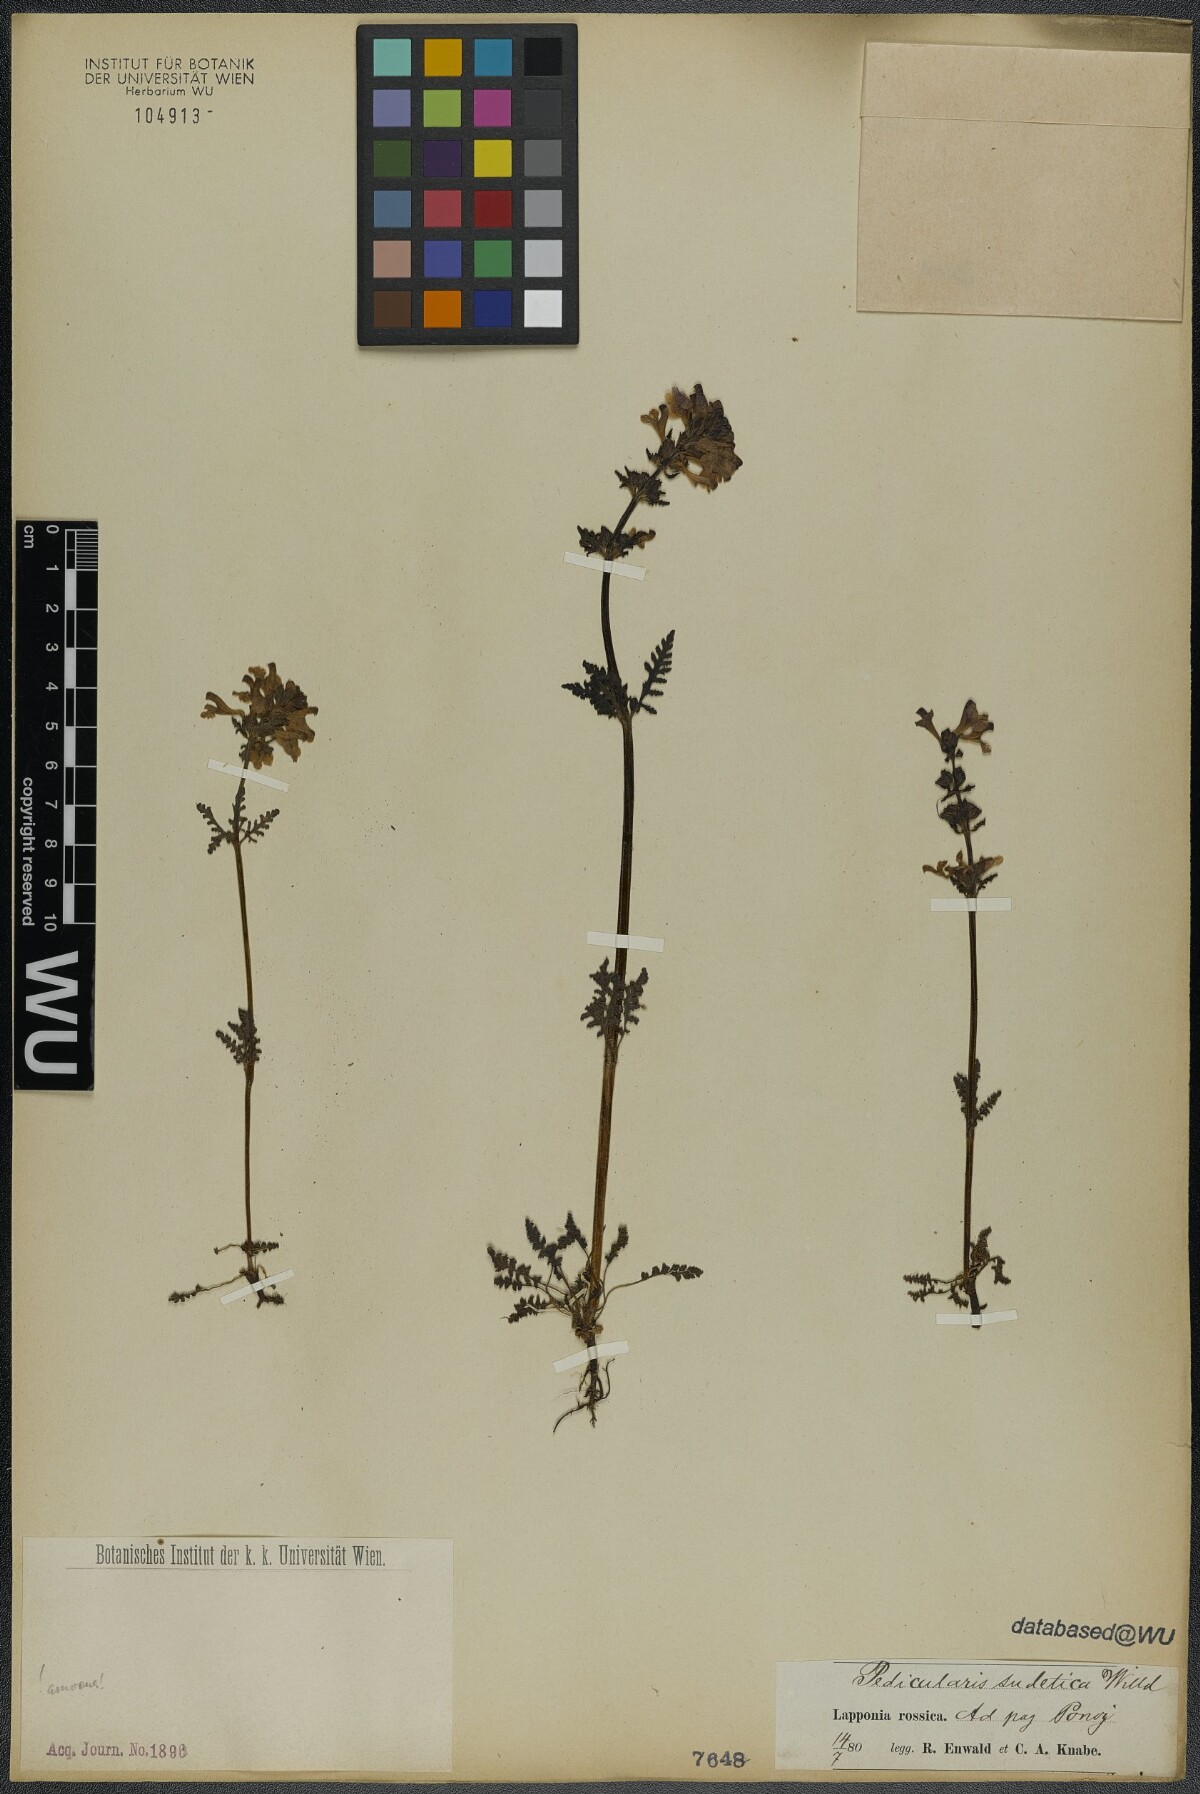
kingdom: Plantae
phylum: Tracheophyta
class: Magnoliopsida
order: Lamiales
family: Orobanchaceae
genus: Pedicularis
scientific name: Pedicularis sudetica
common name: Sudeten lousewort
